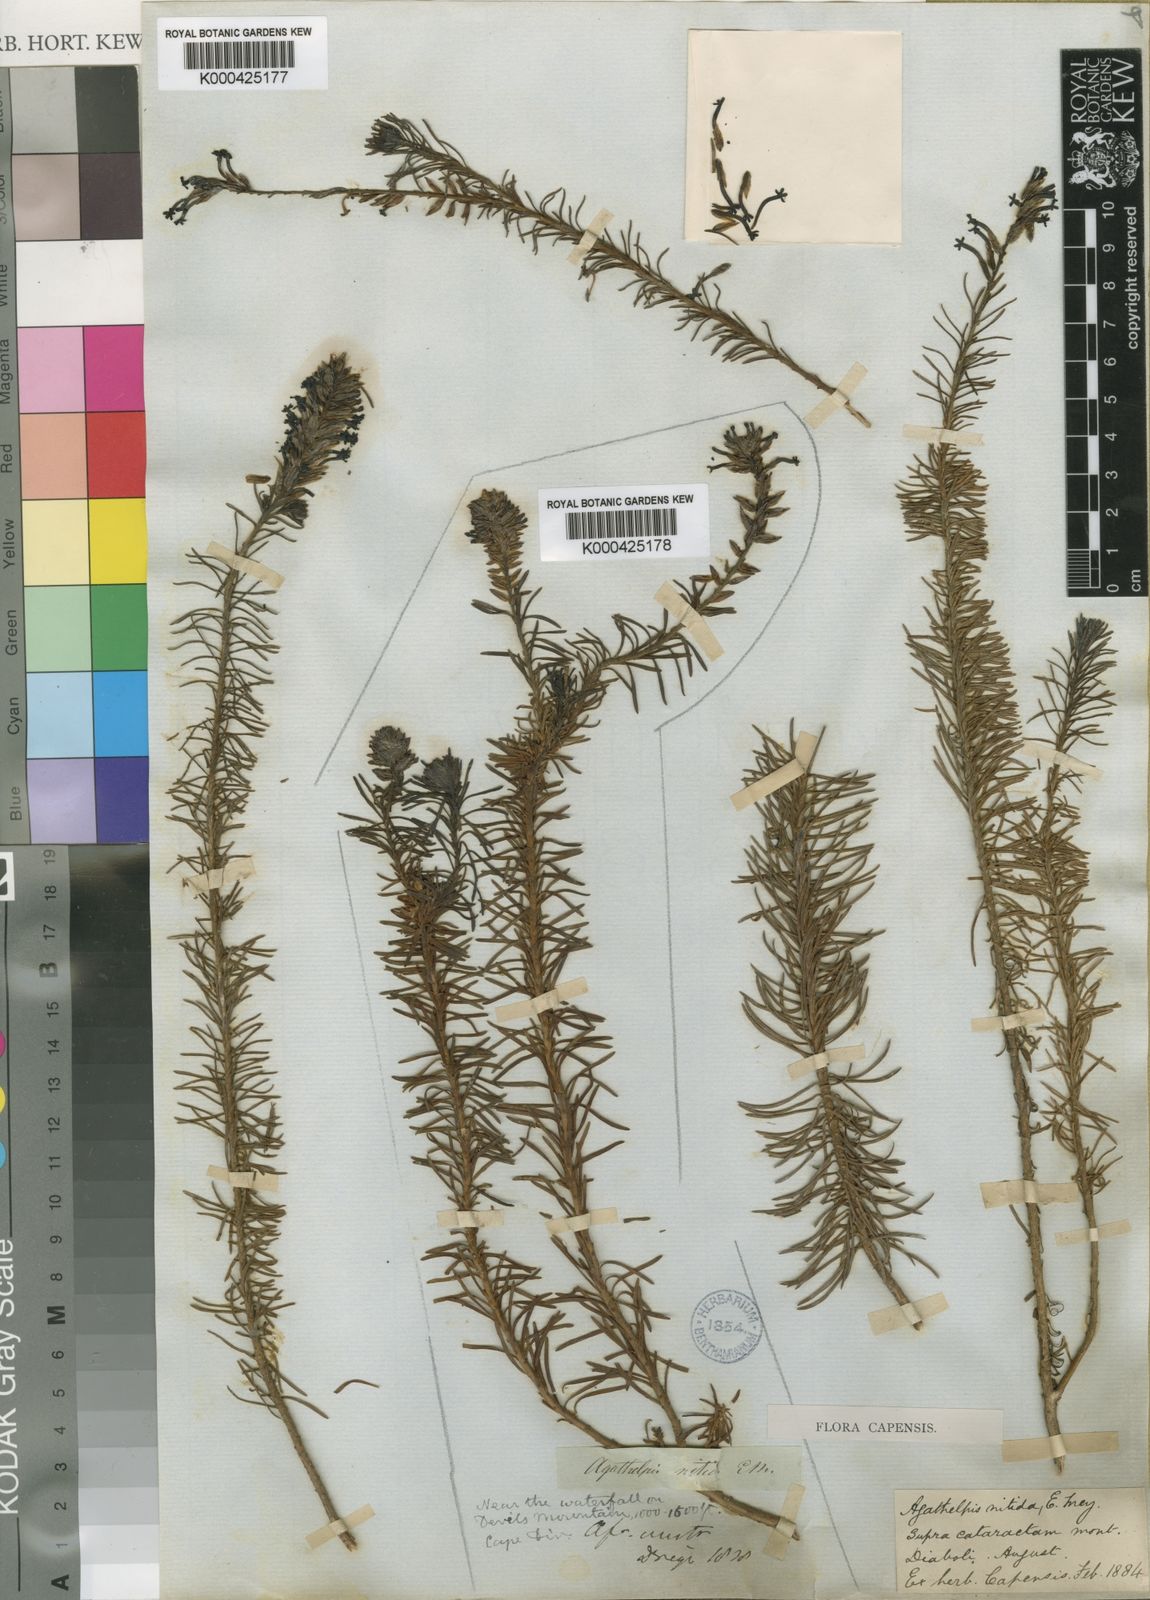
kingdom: Plantae
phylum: Tracheophyta
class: Magnoliopsida
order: Lamiales
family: Scrophulariaceae
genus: Microdon
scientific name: Microdon nitidus
